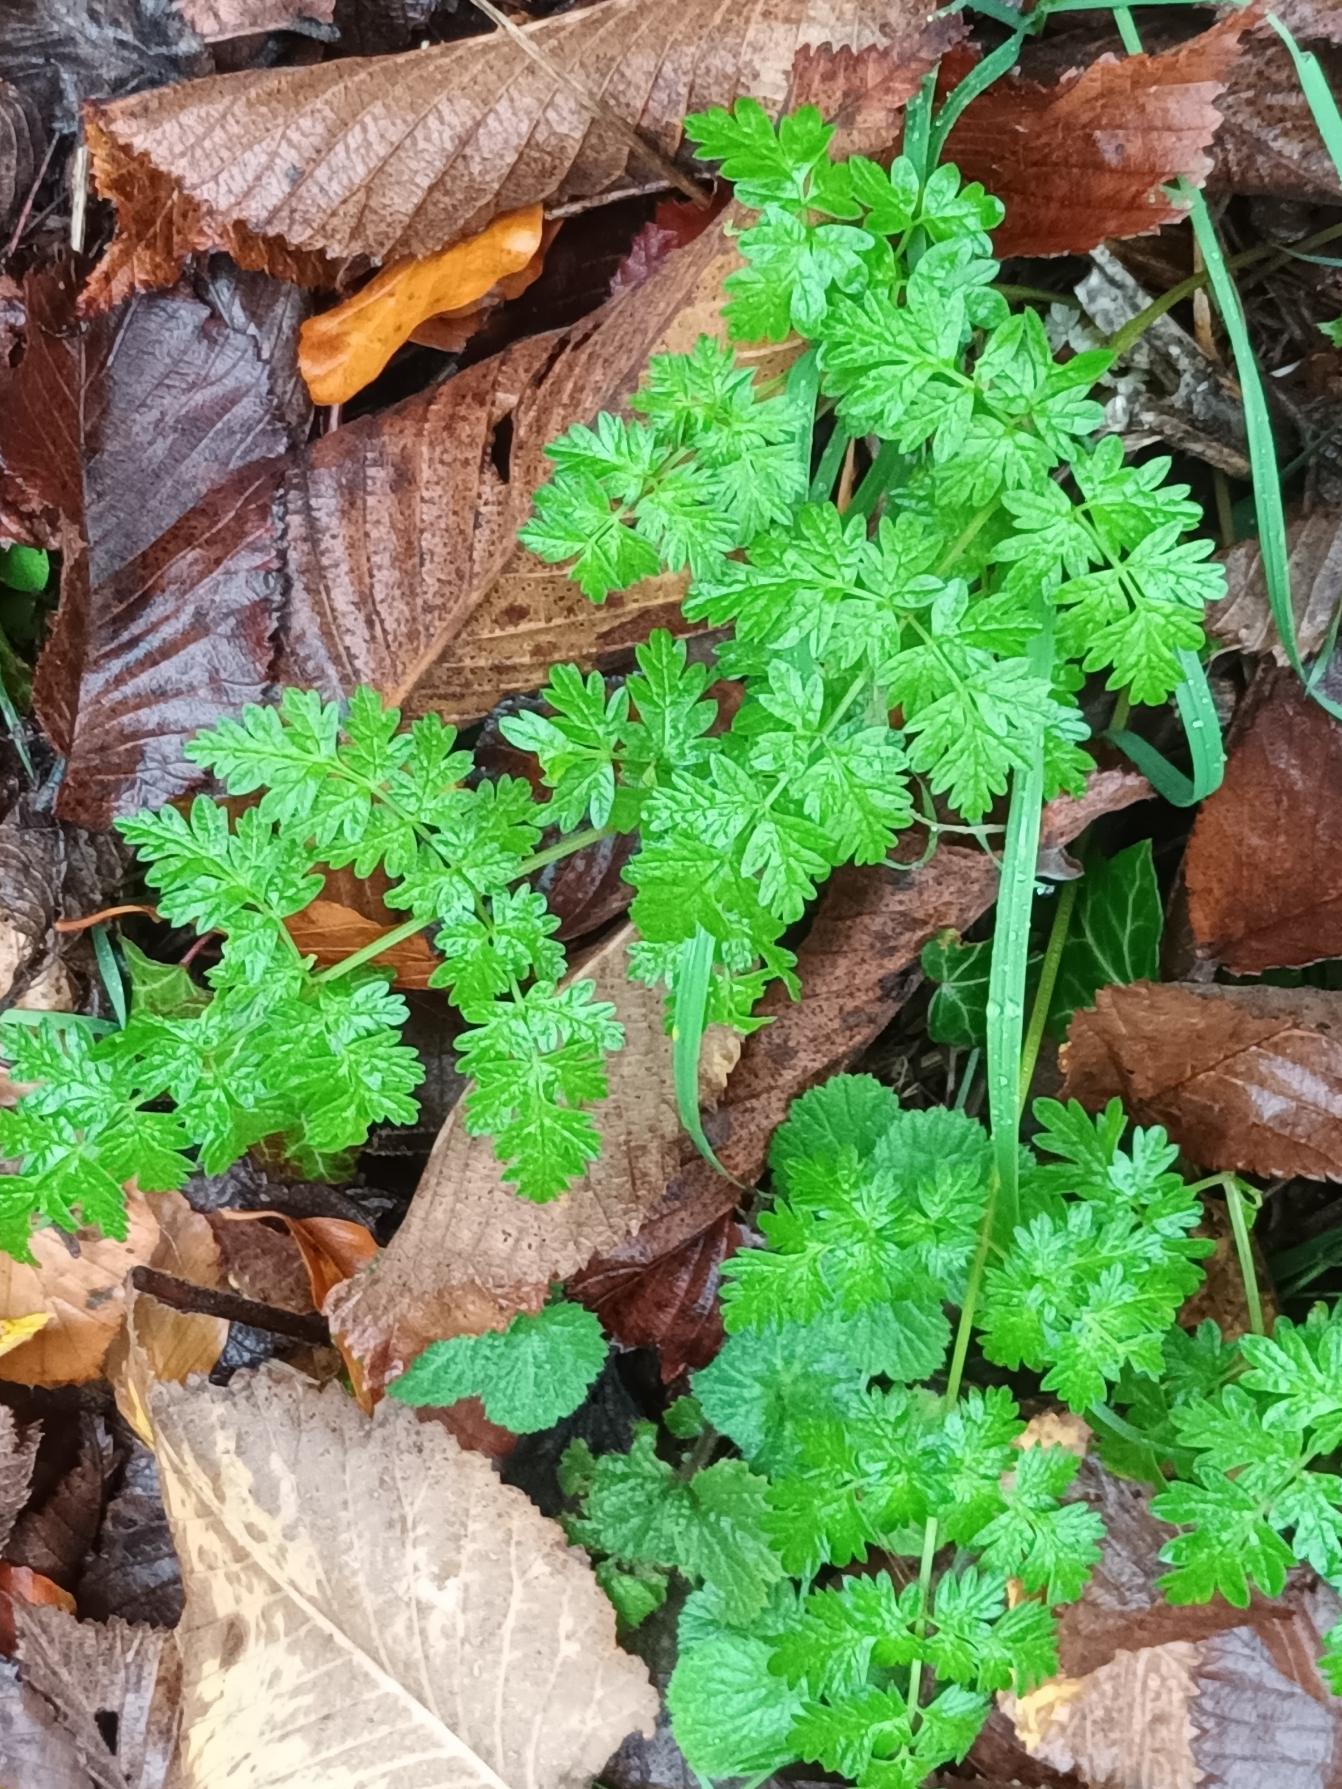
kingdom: Plantae
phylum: Tracheophyta
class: Magnoliopsida
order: Apiales
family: Apiaceae
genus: Anthriscus
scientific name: Anthriscus sylvestris
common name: Vild kørvel
